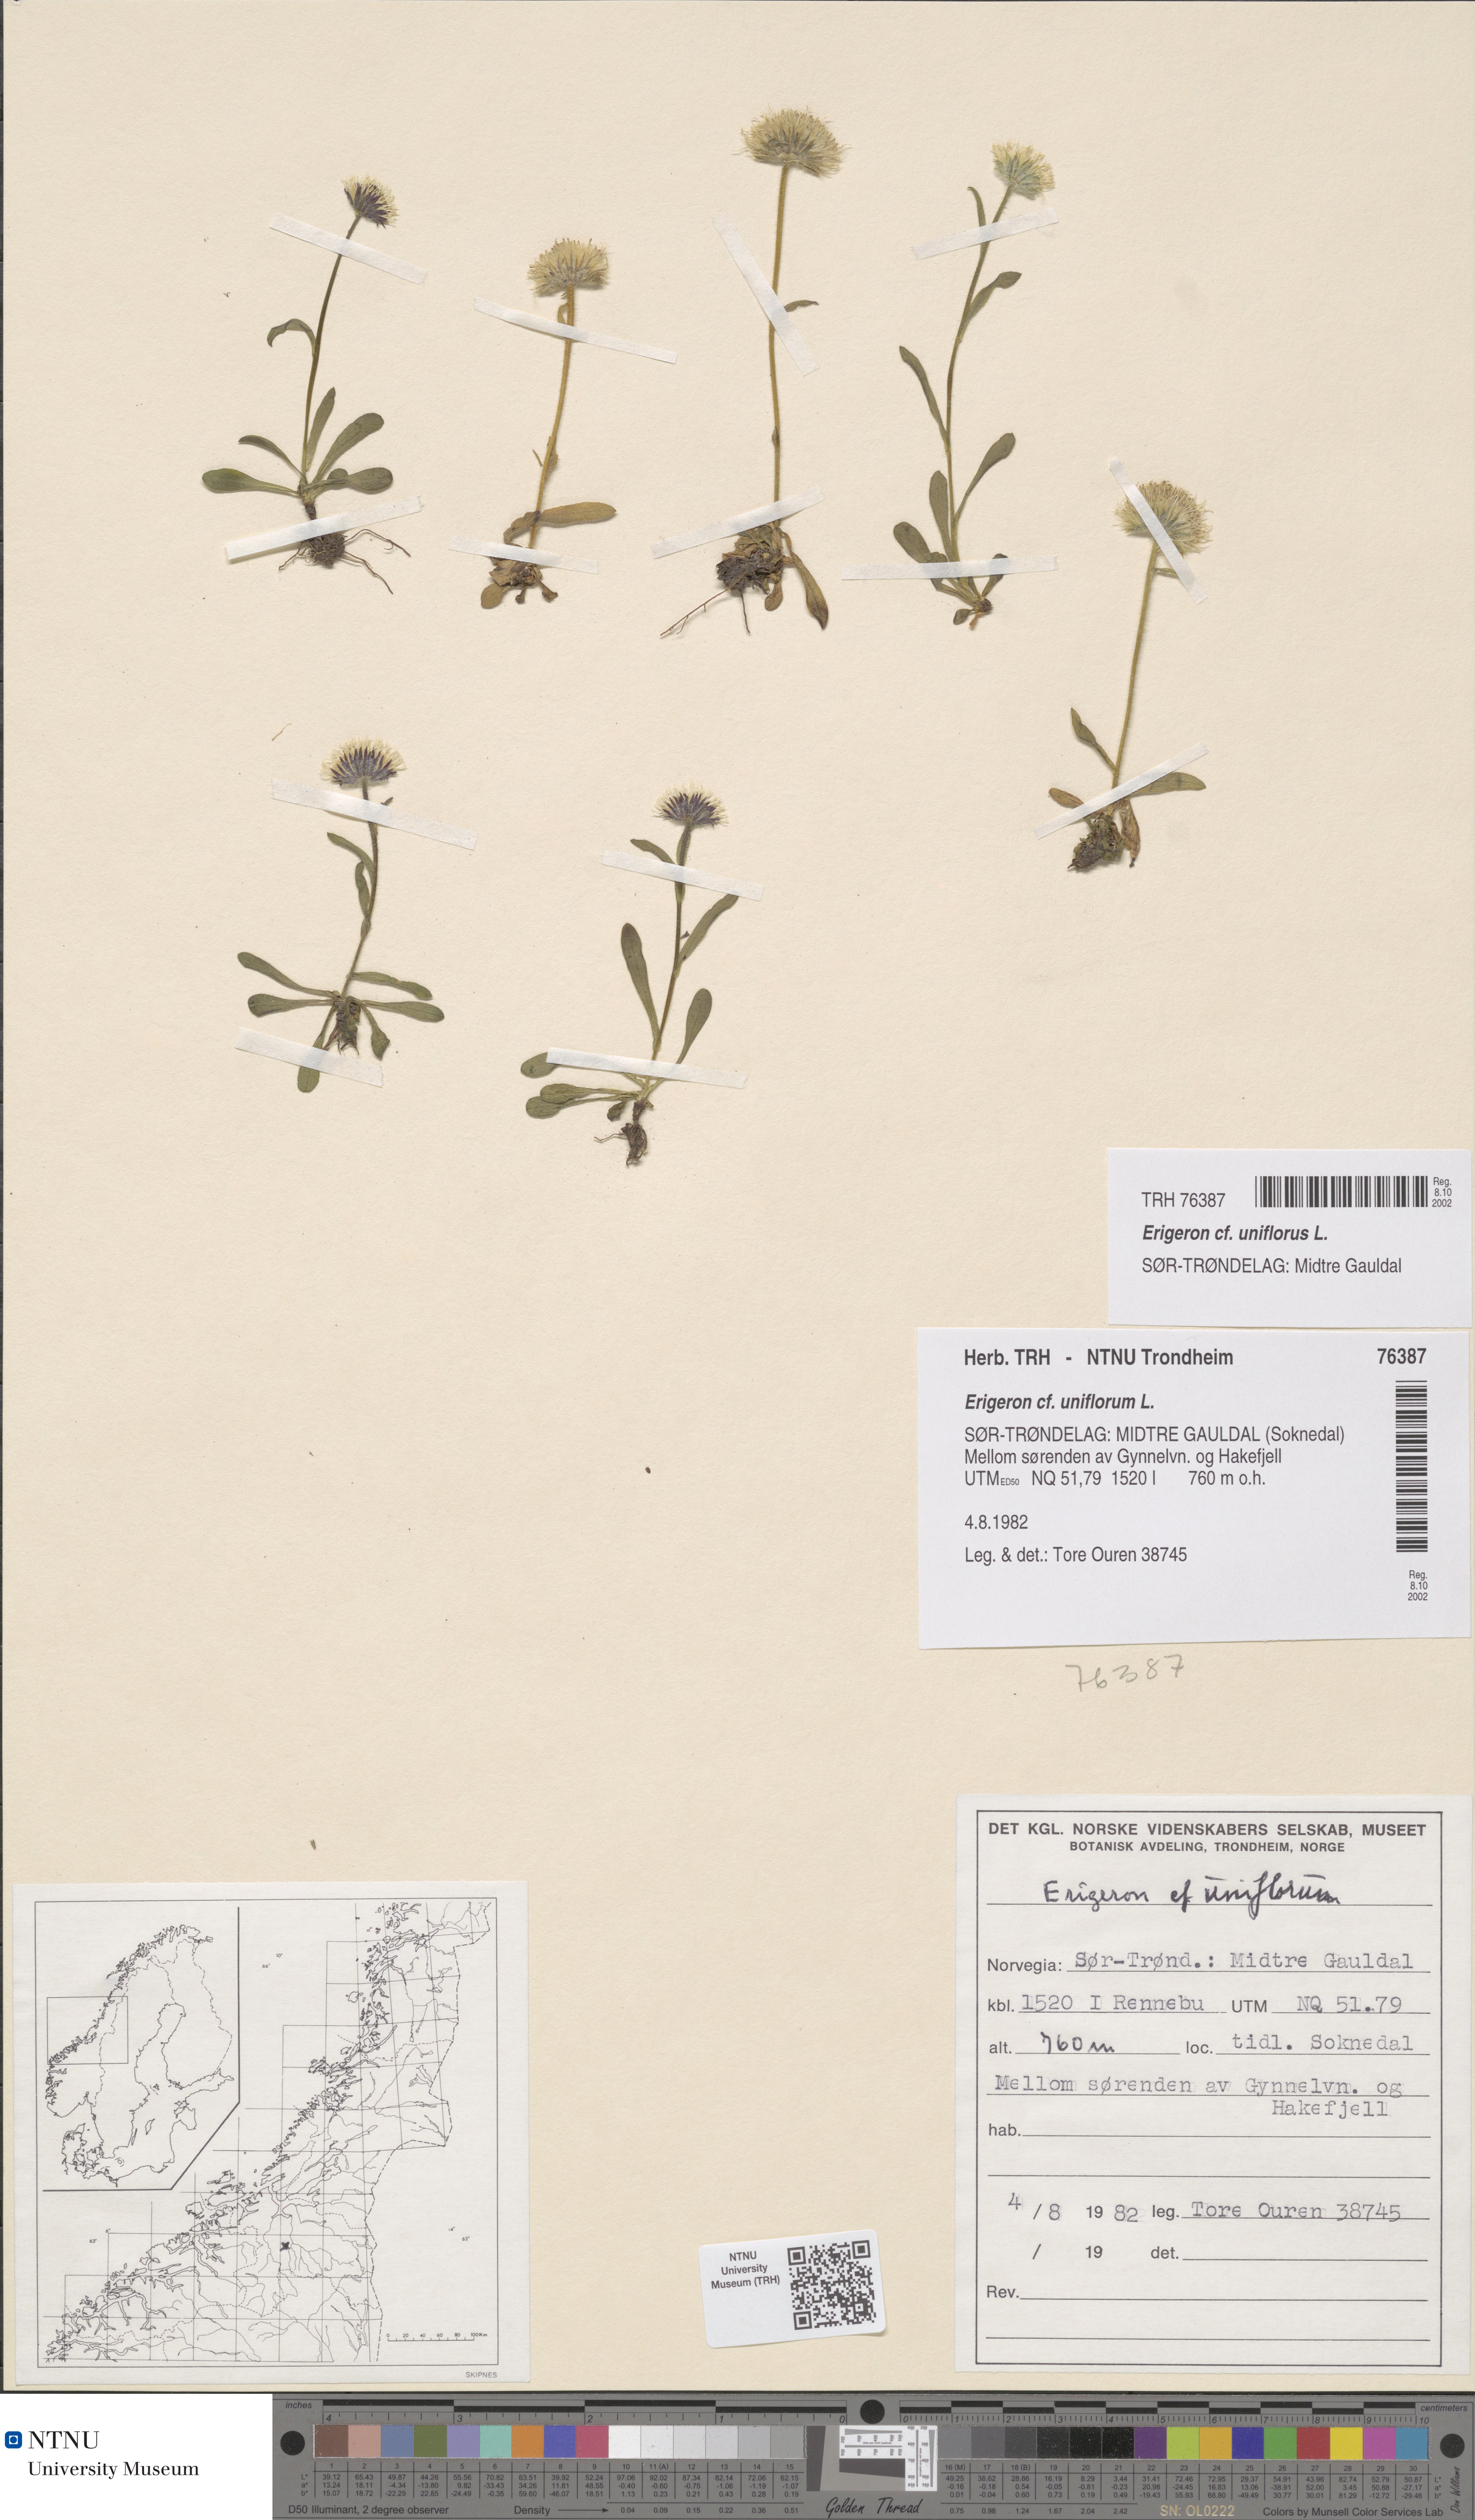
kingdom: Plantae
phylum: Tracheophyta
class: Magnoliopsida
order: Asterales
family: Asteraceae
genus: Erigeron
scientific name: Erigeron uniflorus
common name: Northern daisy
